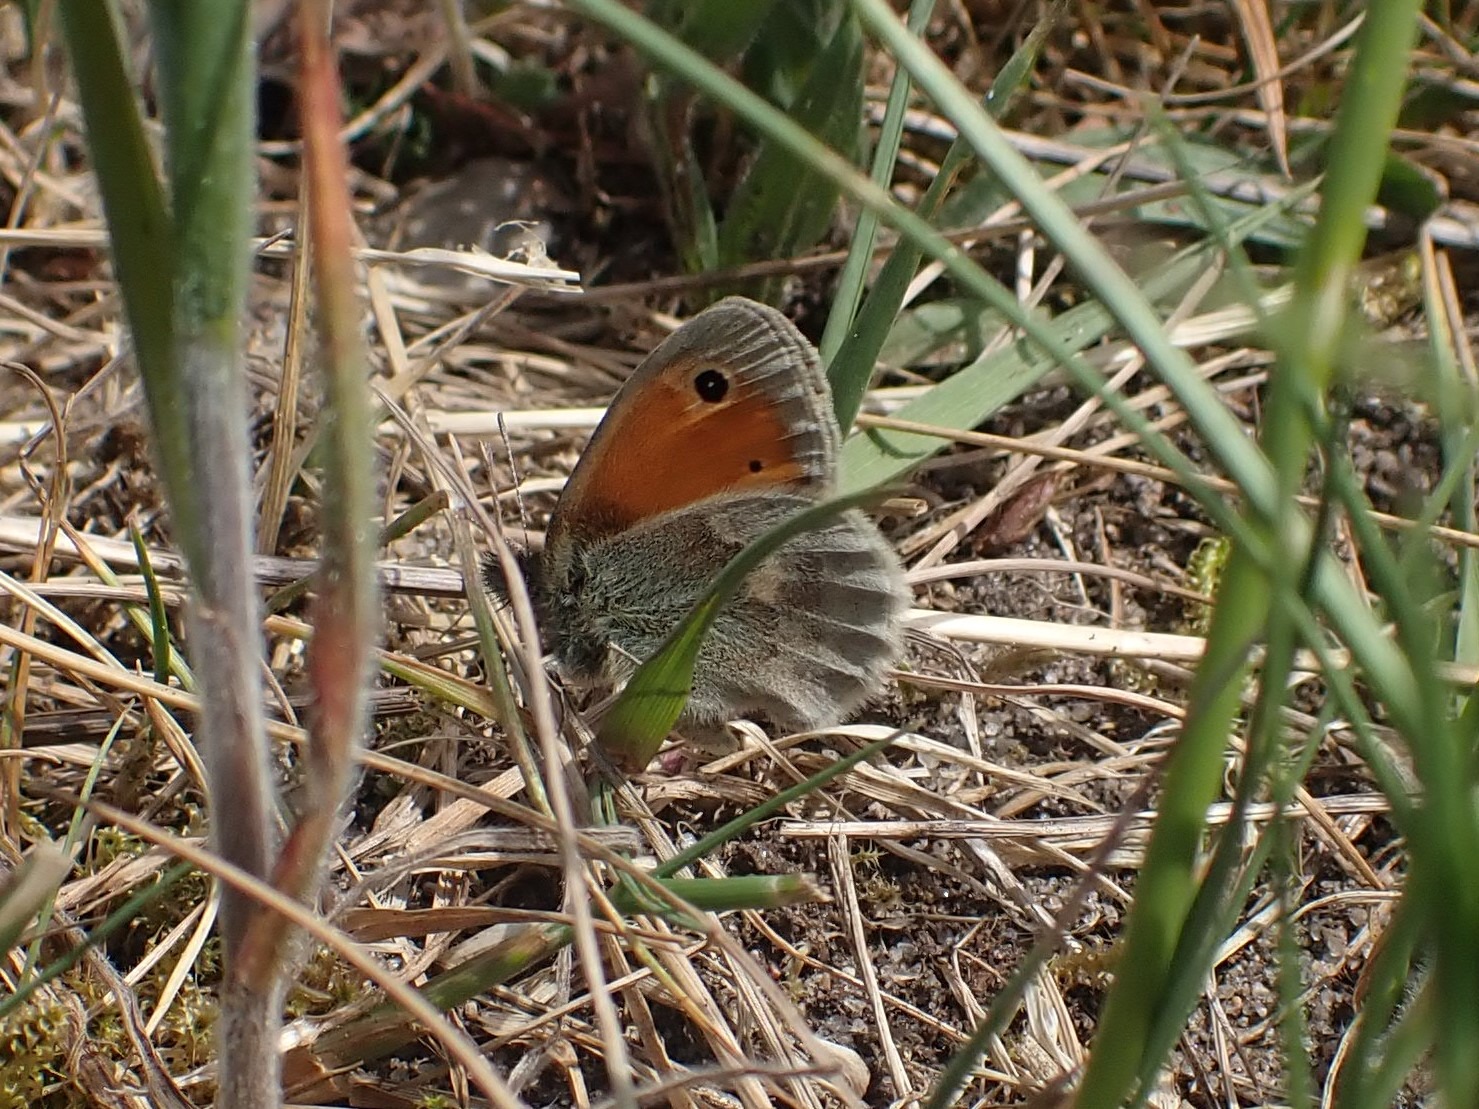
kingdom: Animalia
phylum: Arthropoda
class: Insecta
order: Lepidoptera
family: Nymphalidae
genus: Coenonympha
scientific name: Coenonympha pamphilus
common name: Okkergul randøje
